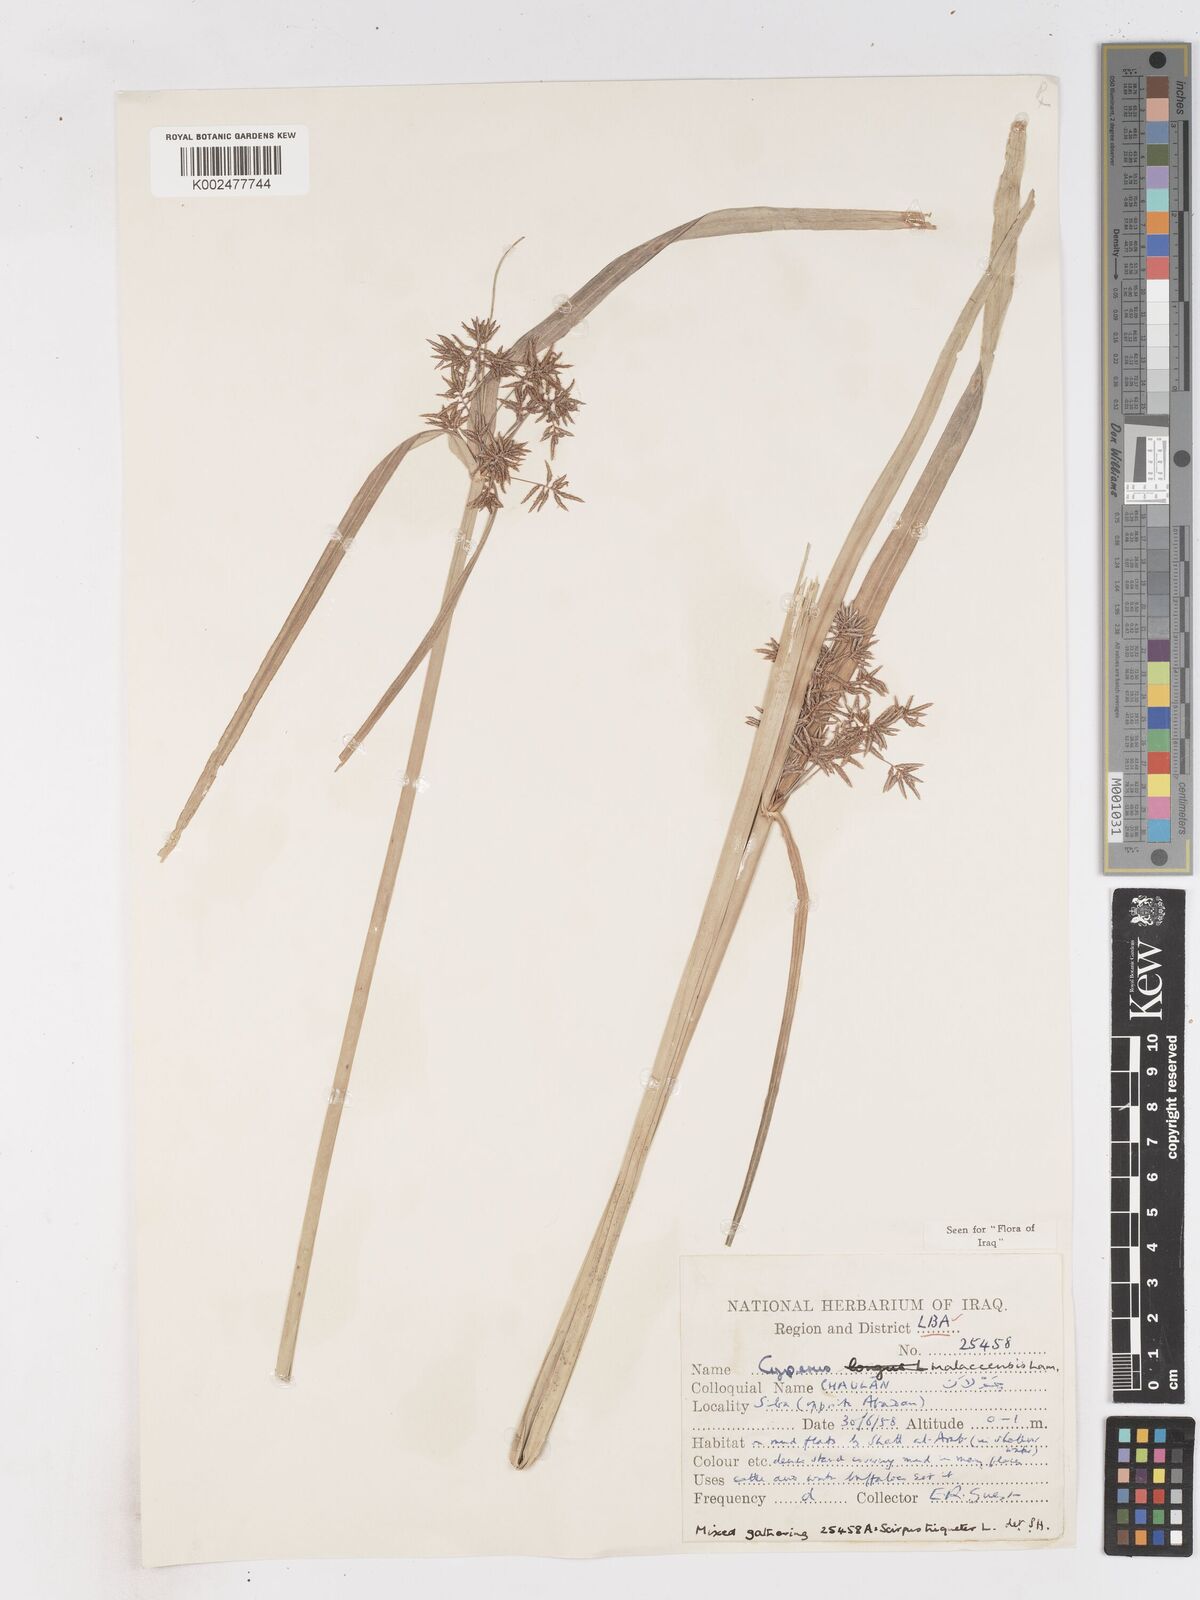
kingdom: Plantae
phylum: Tracheophyta
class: Liliopsida
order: Poales
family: Cyperaceae
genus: Cyperus
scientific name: Cyperus malaccensis
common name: Shichito matgrass
